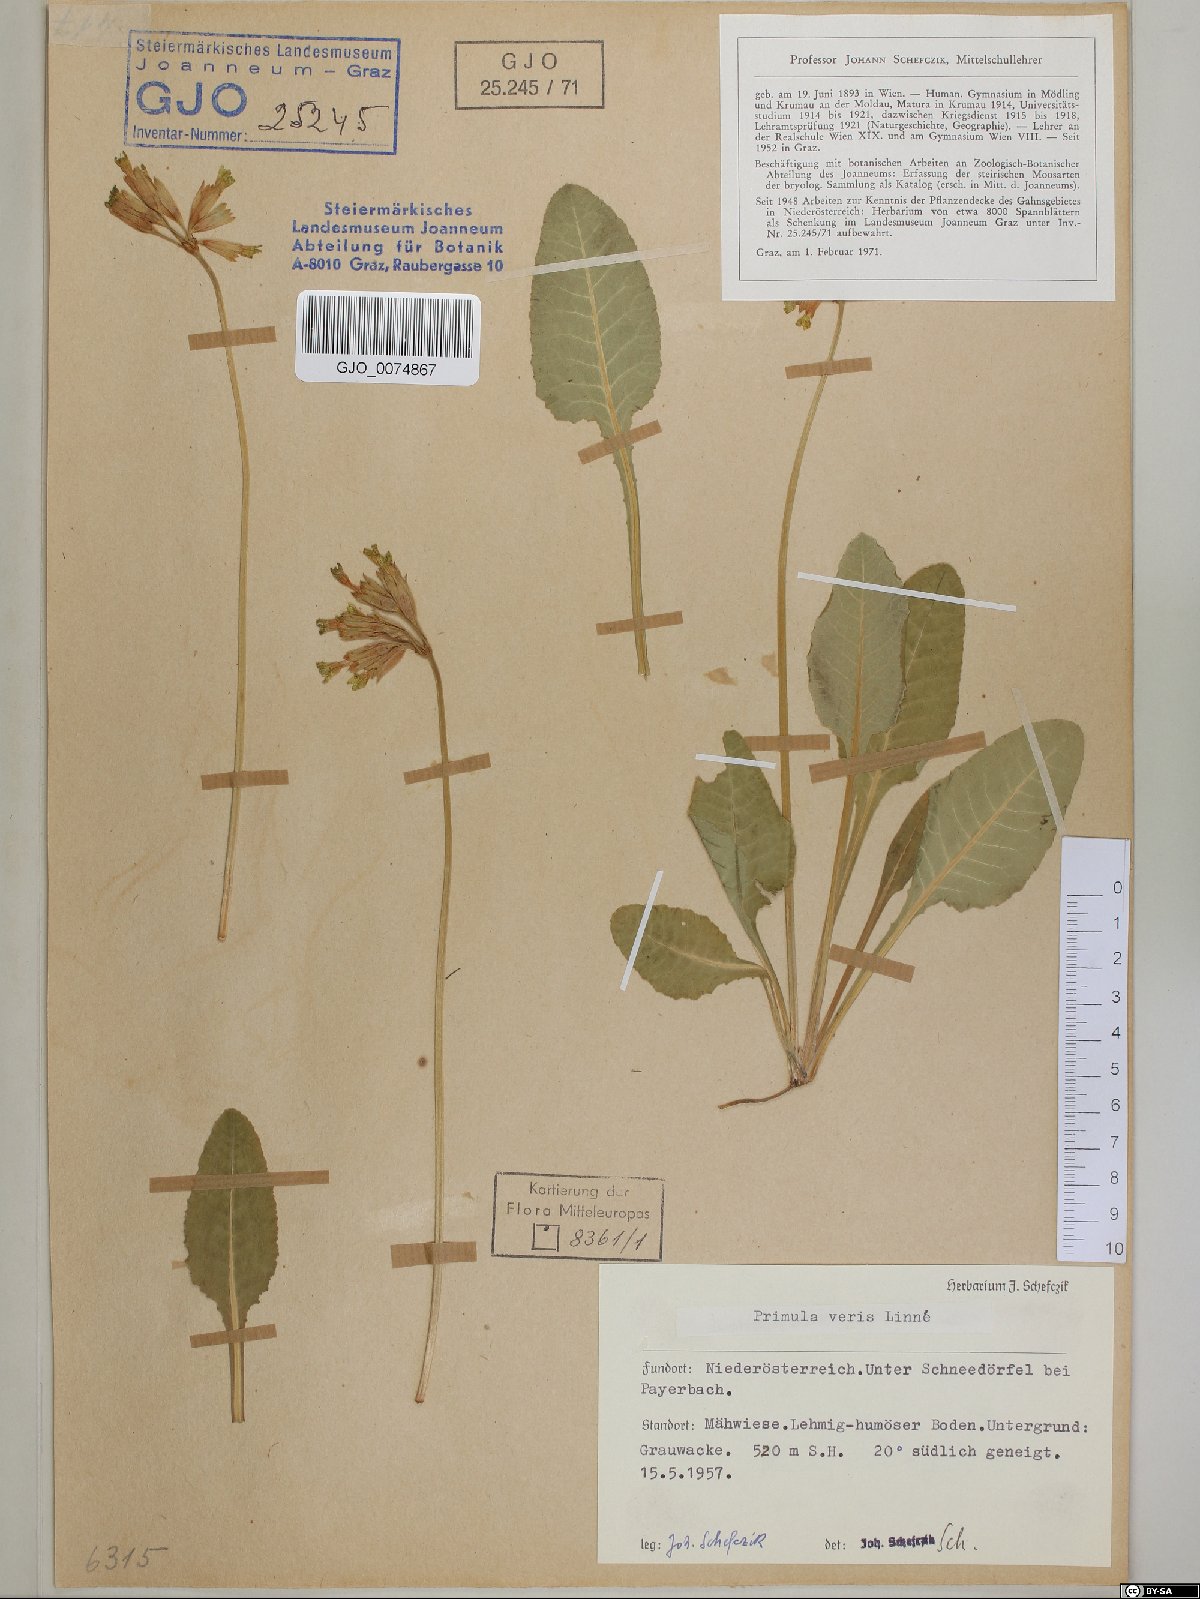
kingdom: Plantae
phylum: Tracheophyta
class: Magnoliopsida
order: Ericales
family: Primulaceae
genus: Primula
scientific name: Primula veris
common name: Cowslip
